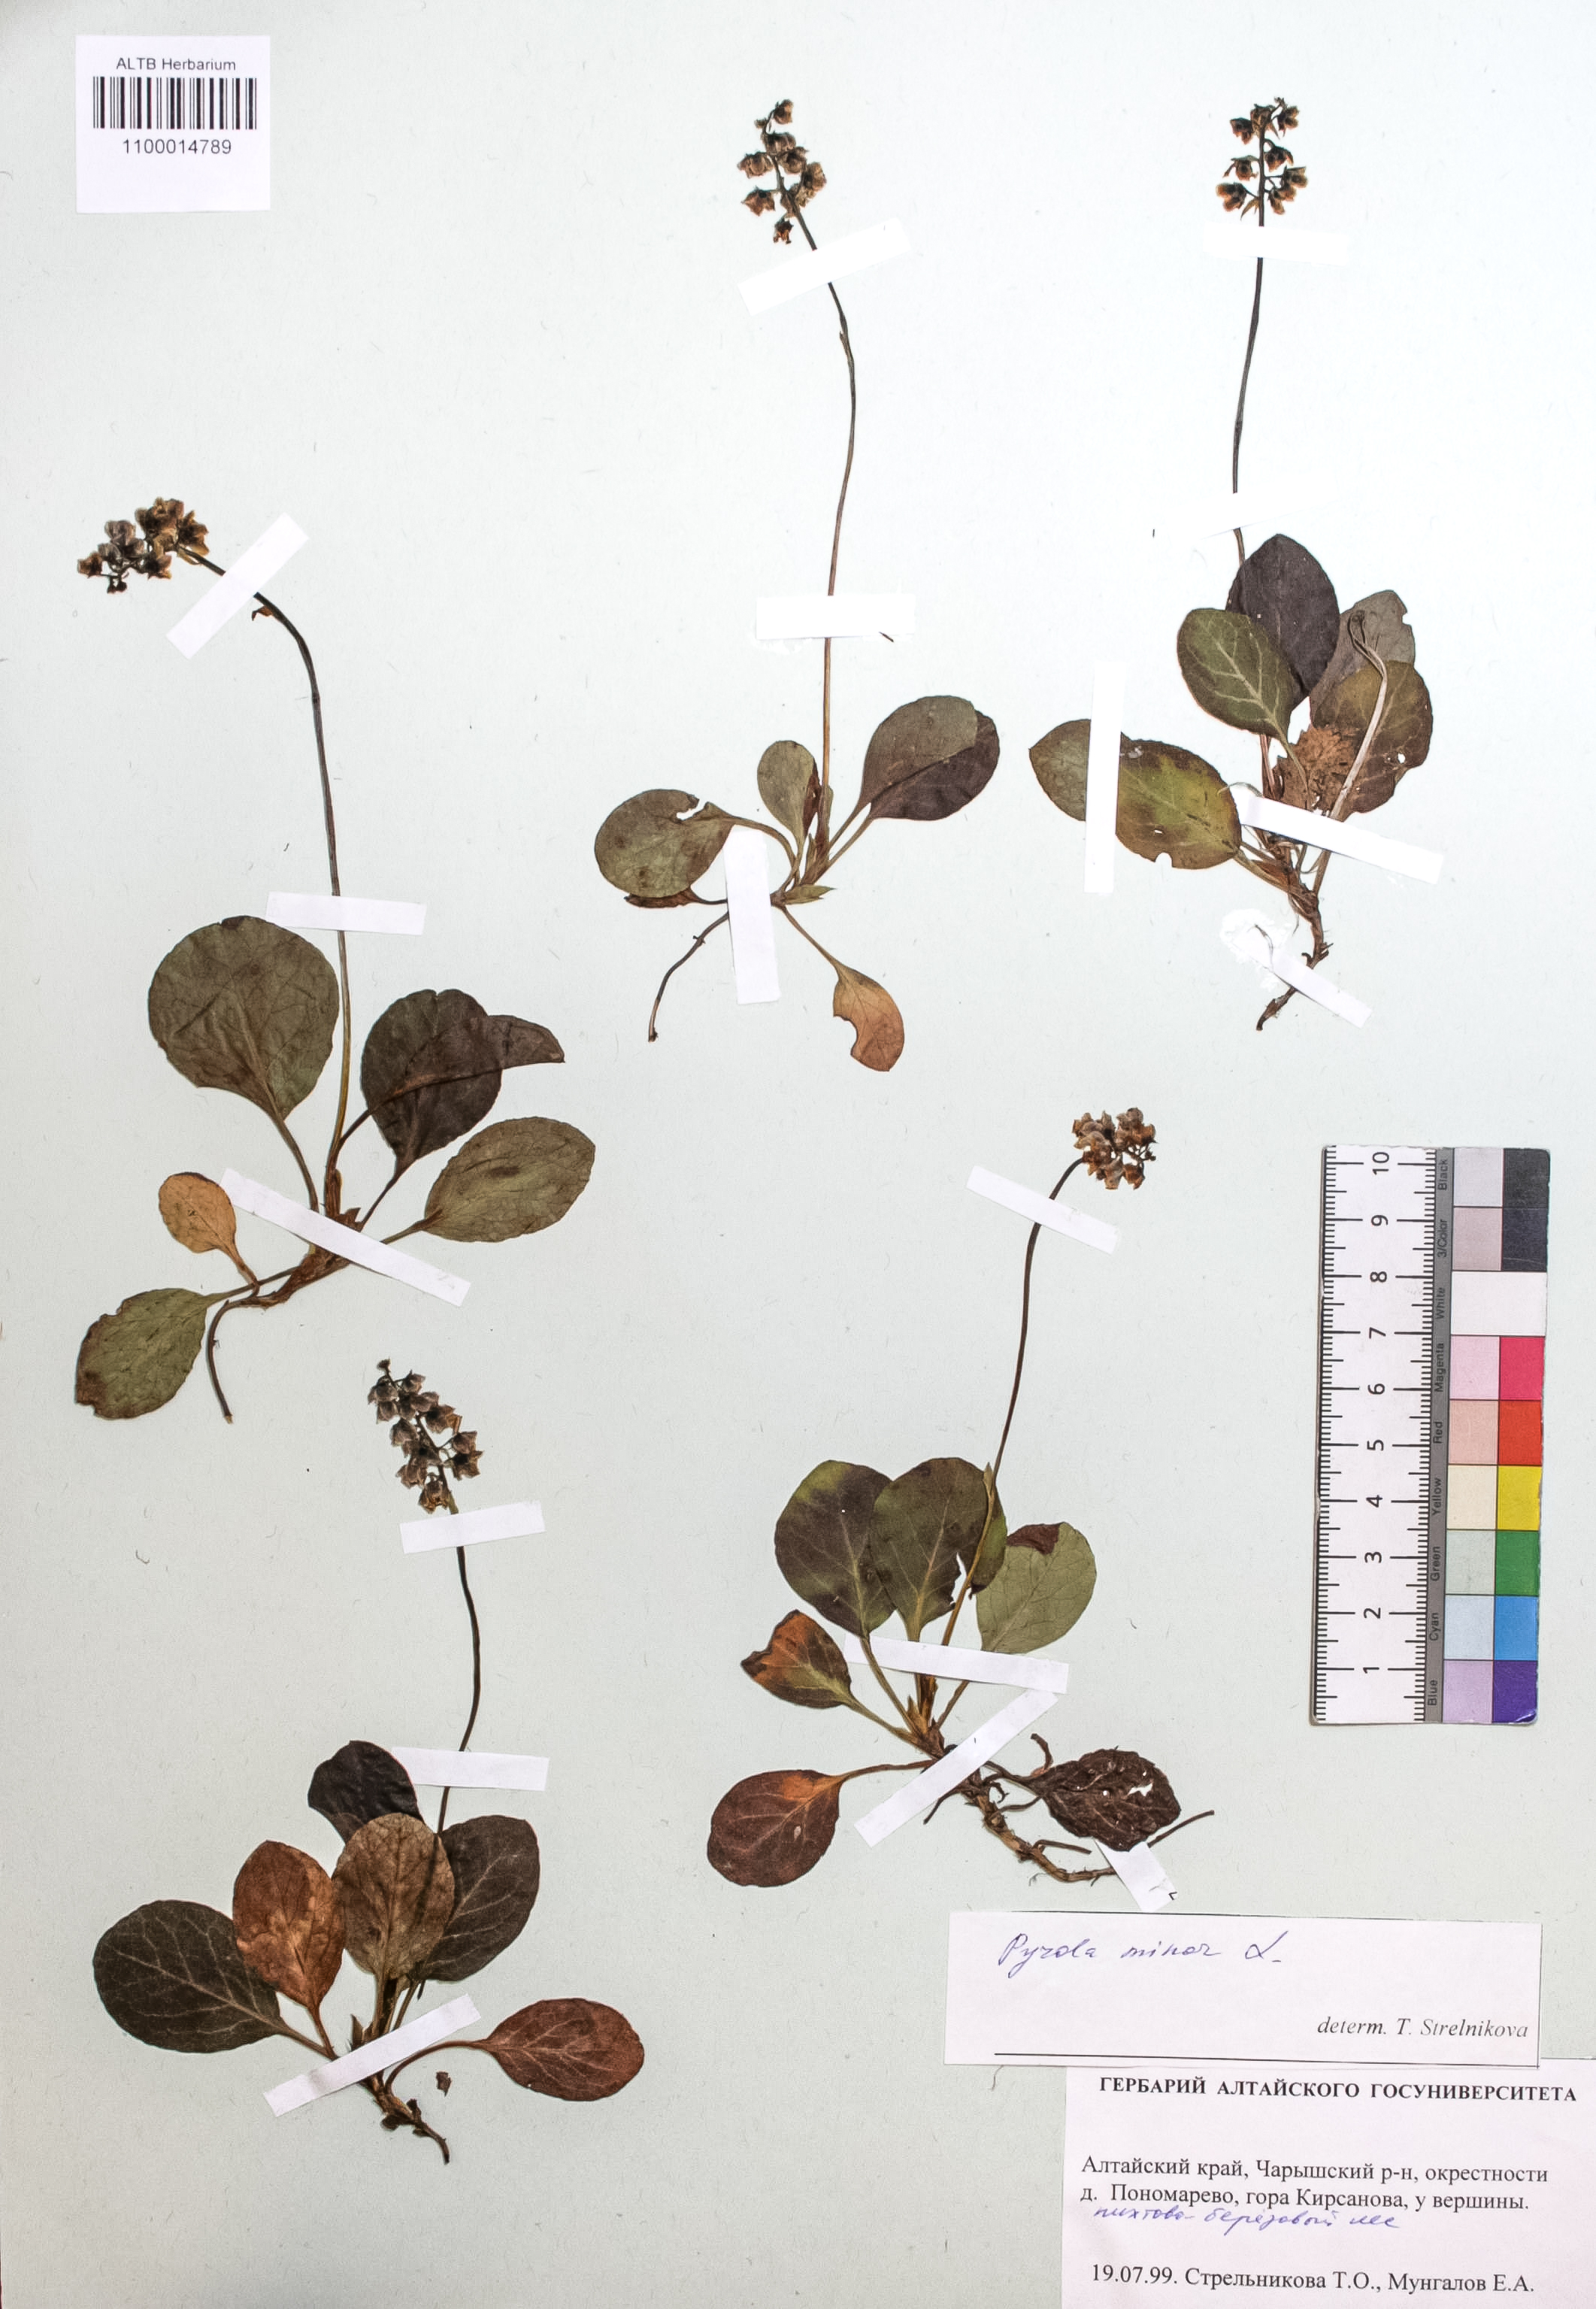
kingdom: Plantae
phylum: Tracheophyta
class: Magnoliopsida
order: Ericales
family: Ericaceae
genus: Pyrola
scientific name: Pyrola minor
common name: Common wintergreen
